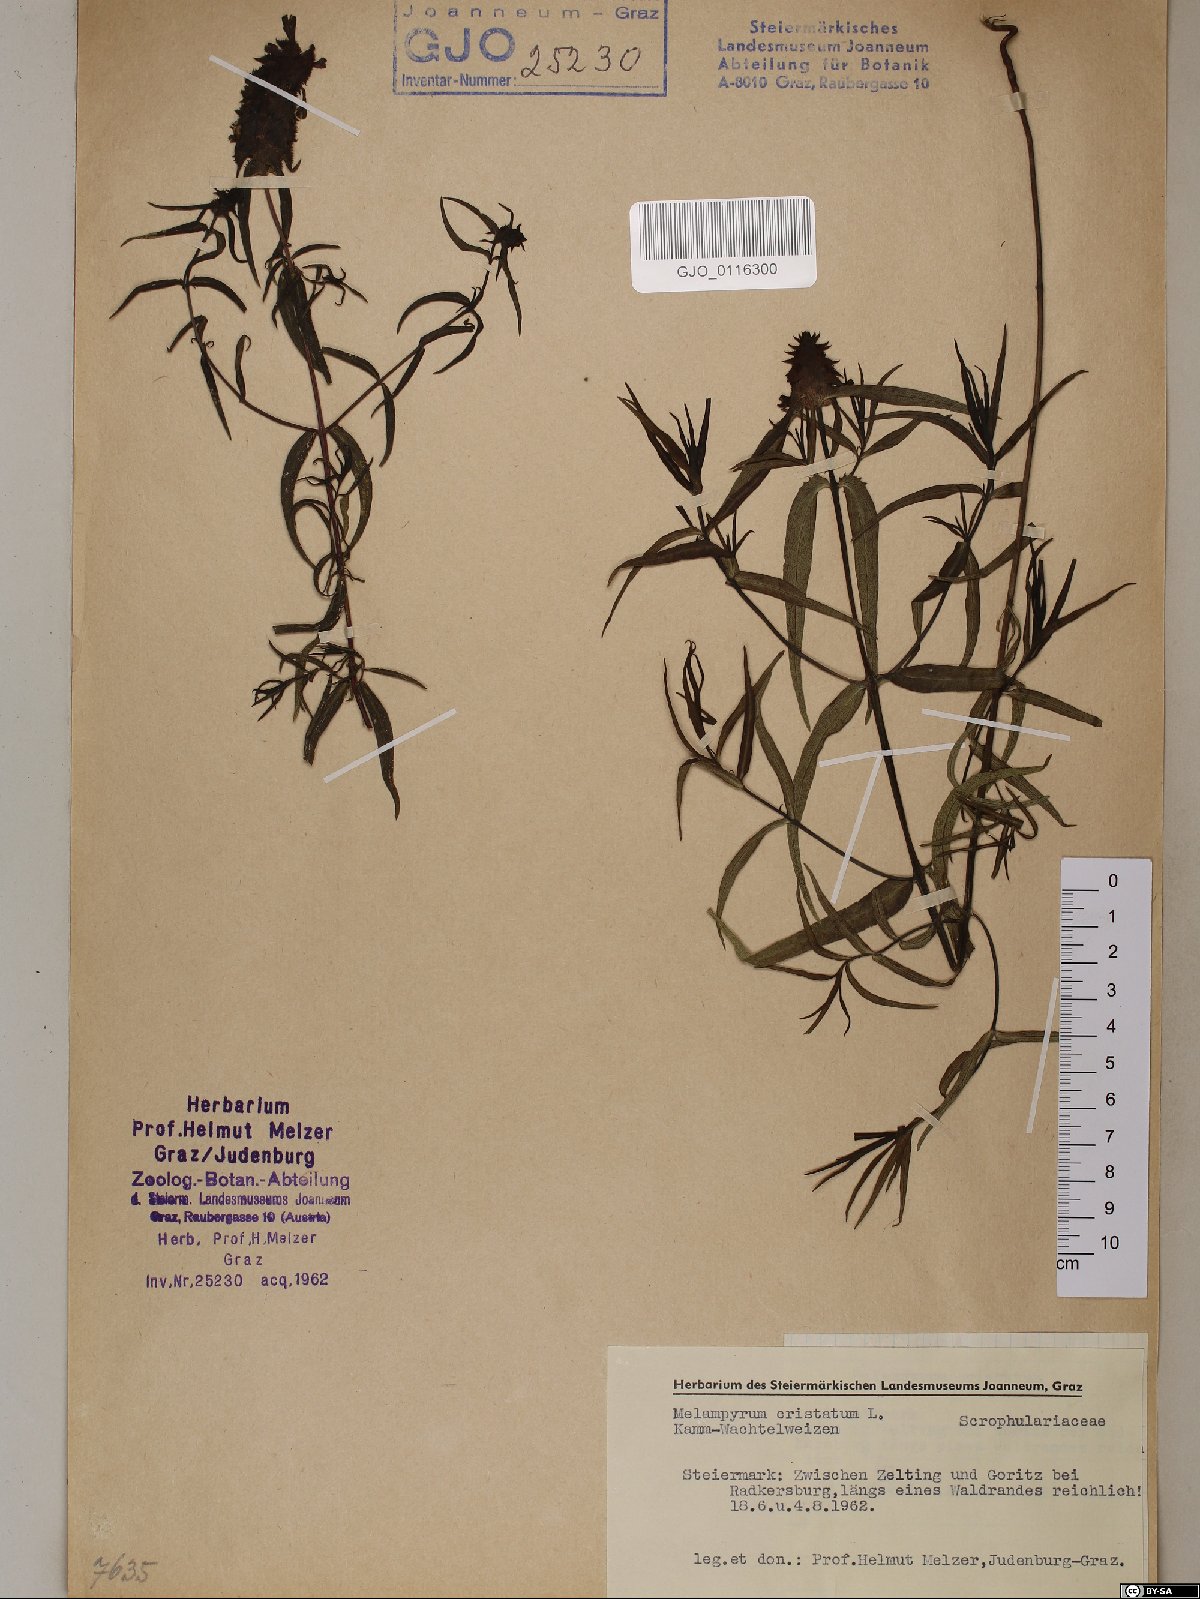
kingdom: Plantae
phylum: Tracheophyta
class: Magnoliopsida
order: Lamiales
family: Orobanchaceae
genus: Melampyrum
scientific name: Melampyrum cristatum
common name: Crested cow-wheat
